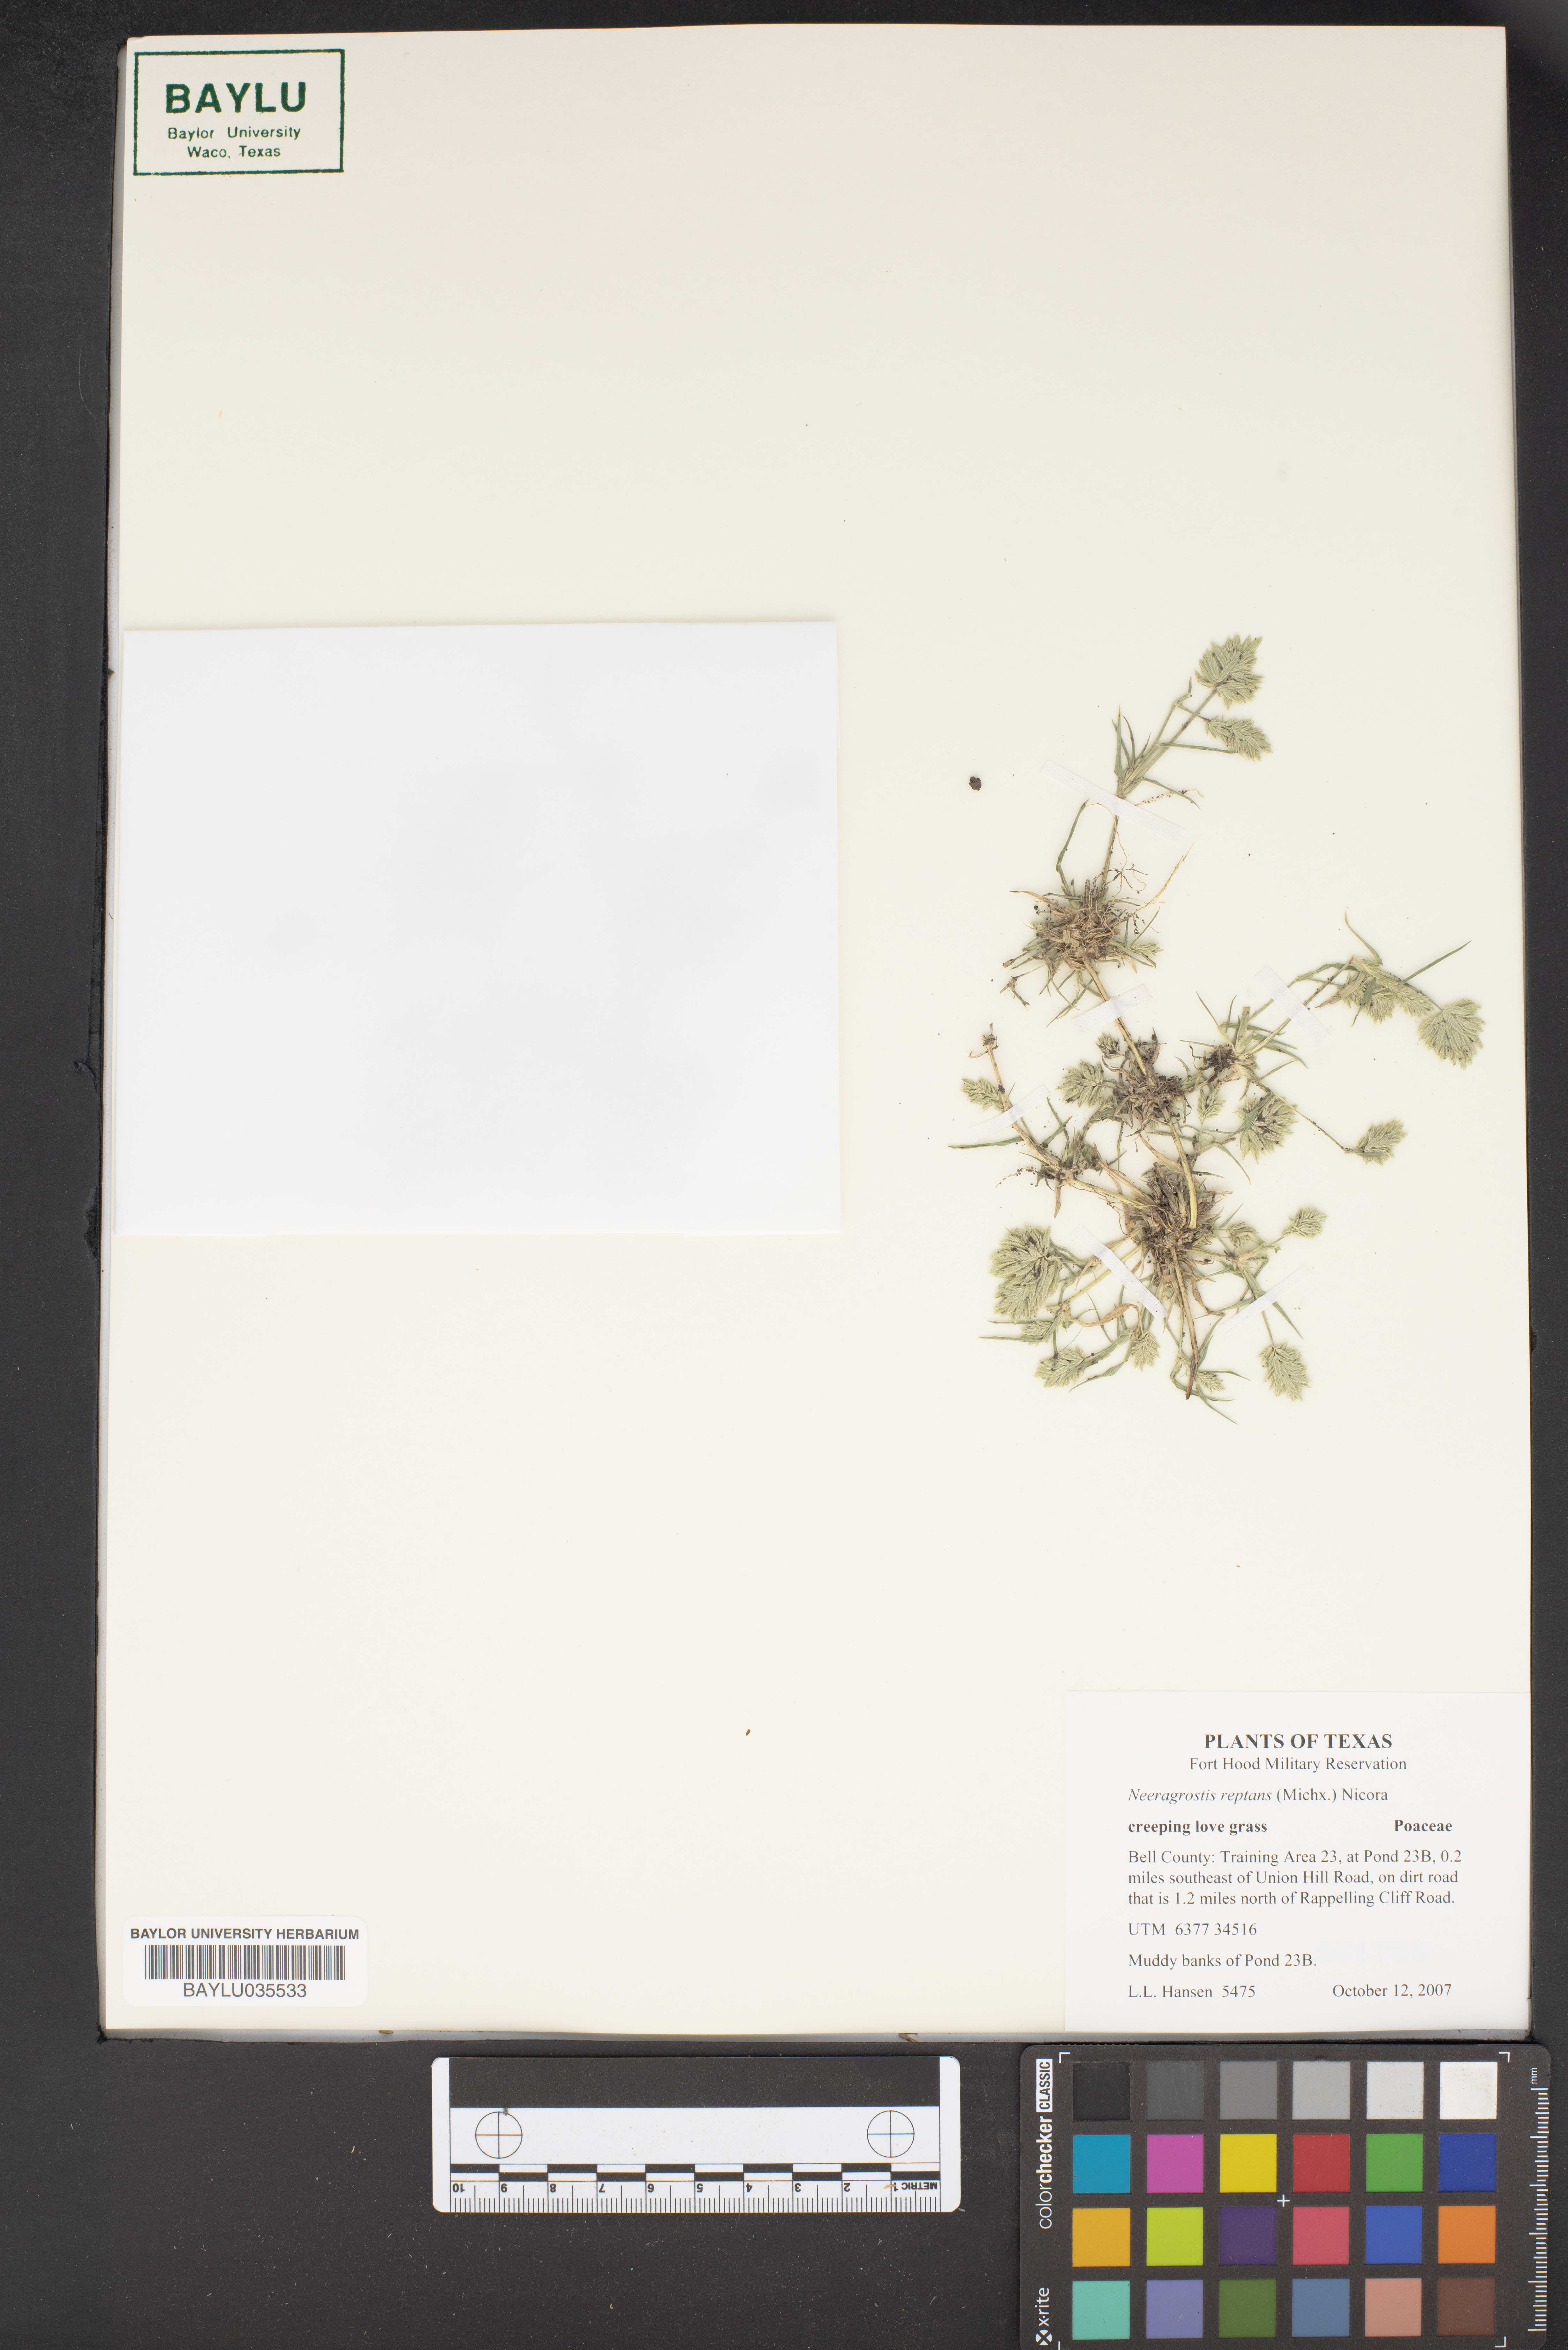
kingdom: Plantae
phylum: Tracheophyta
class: Liliopsida
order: Poales
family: Poaceae
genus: Eragrostis
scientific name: Eragrostis reptans
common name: Creeping love grass
